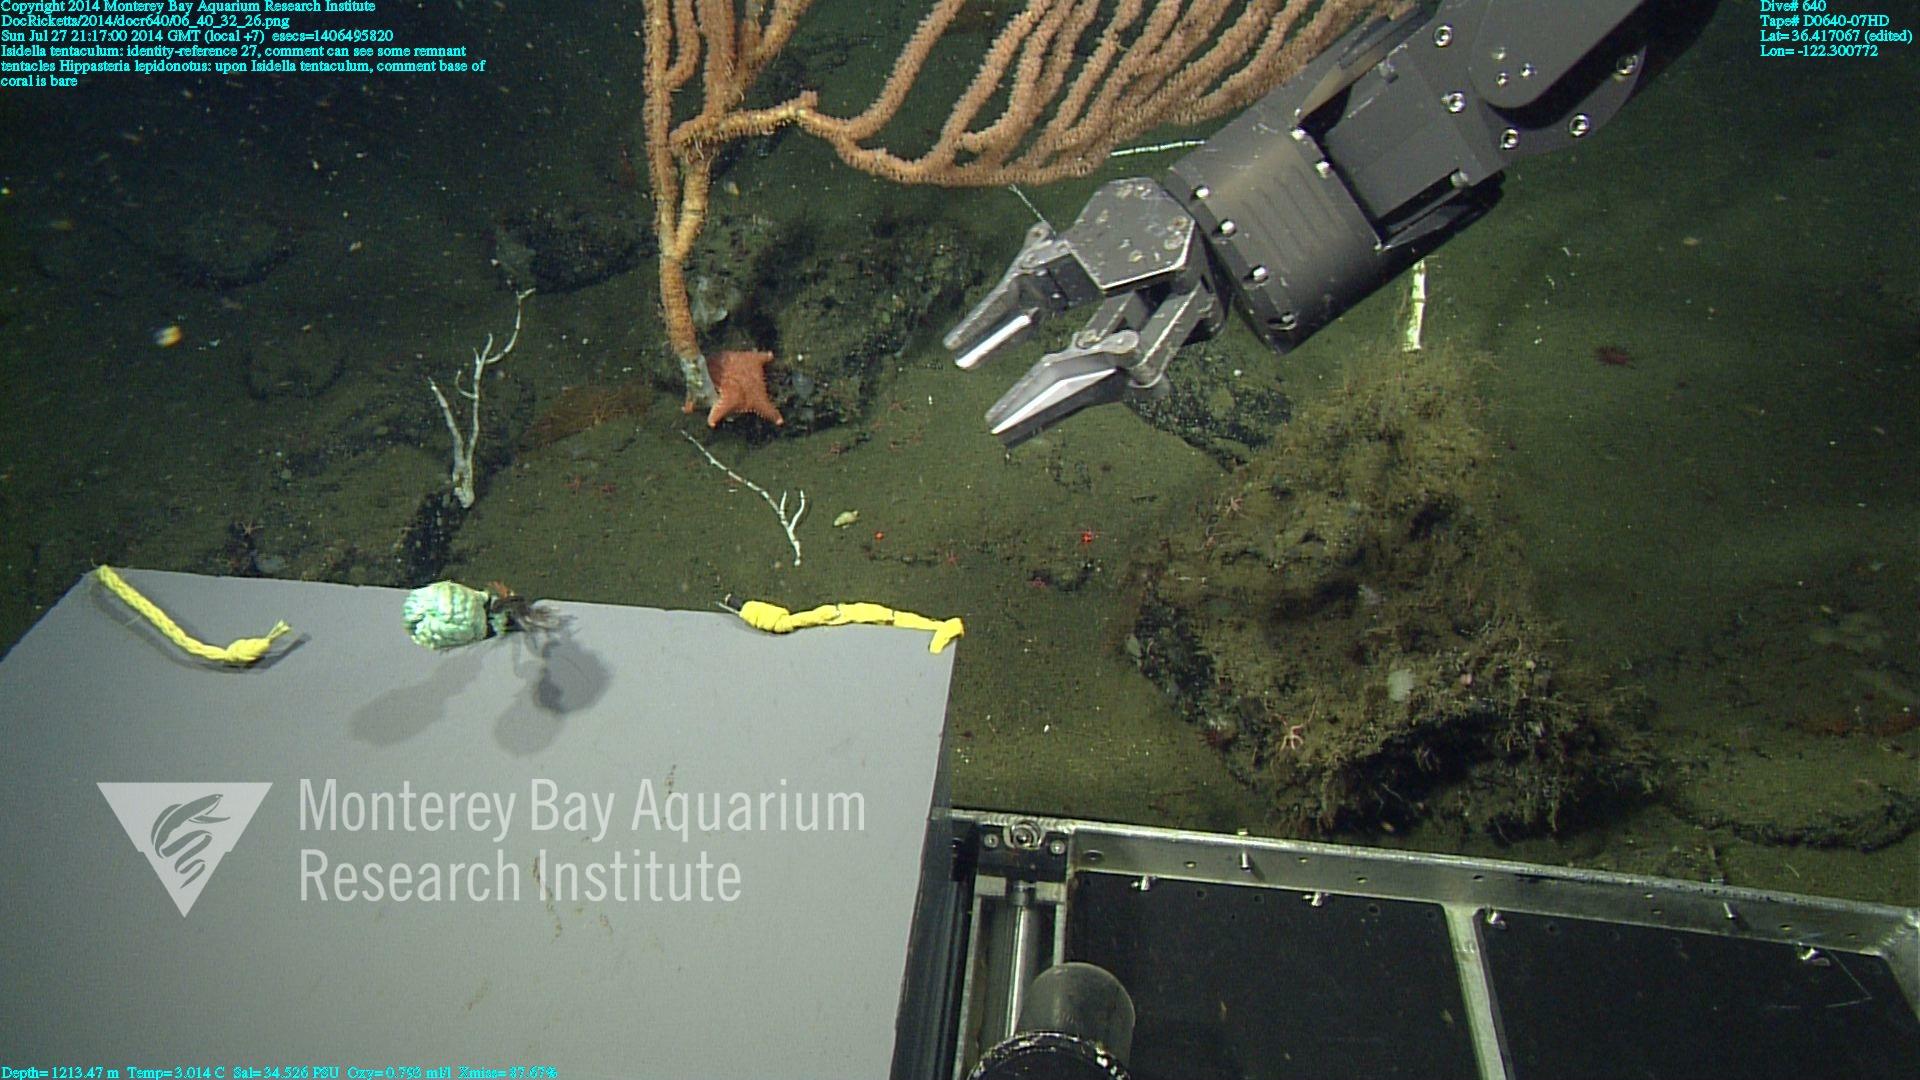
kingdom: Animalia
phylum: Cnidaria
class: Anthozoa
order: Scleralcyonacea
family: Keratoisididae
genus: Isidella
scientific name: Isidella tentaculum
